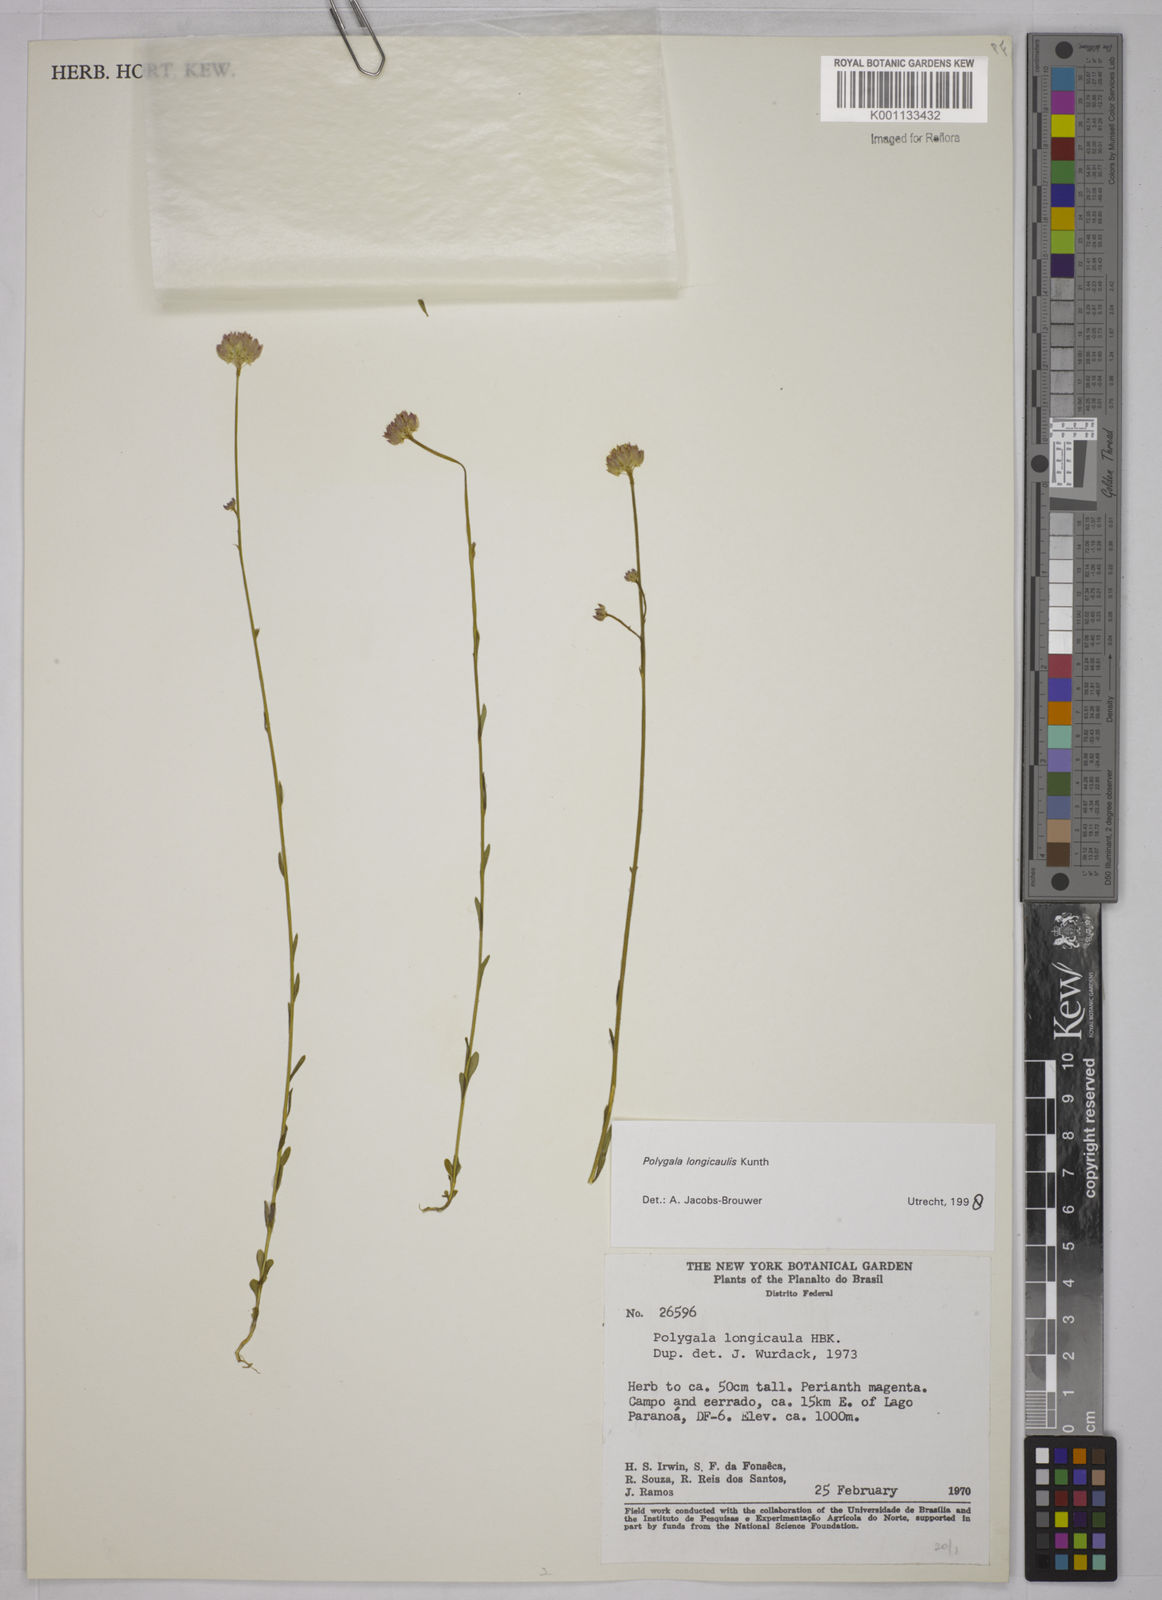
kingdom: Plantae
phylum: Tracheophyta
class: Magnoliopsida
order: Fabales
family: Polygalaceae
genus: Polygala
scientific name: Polygala longicaulis
